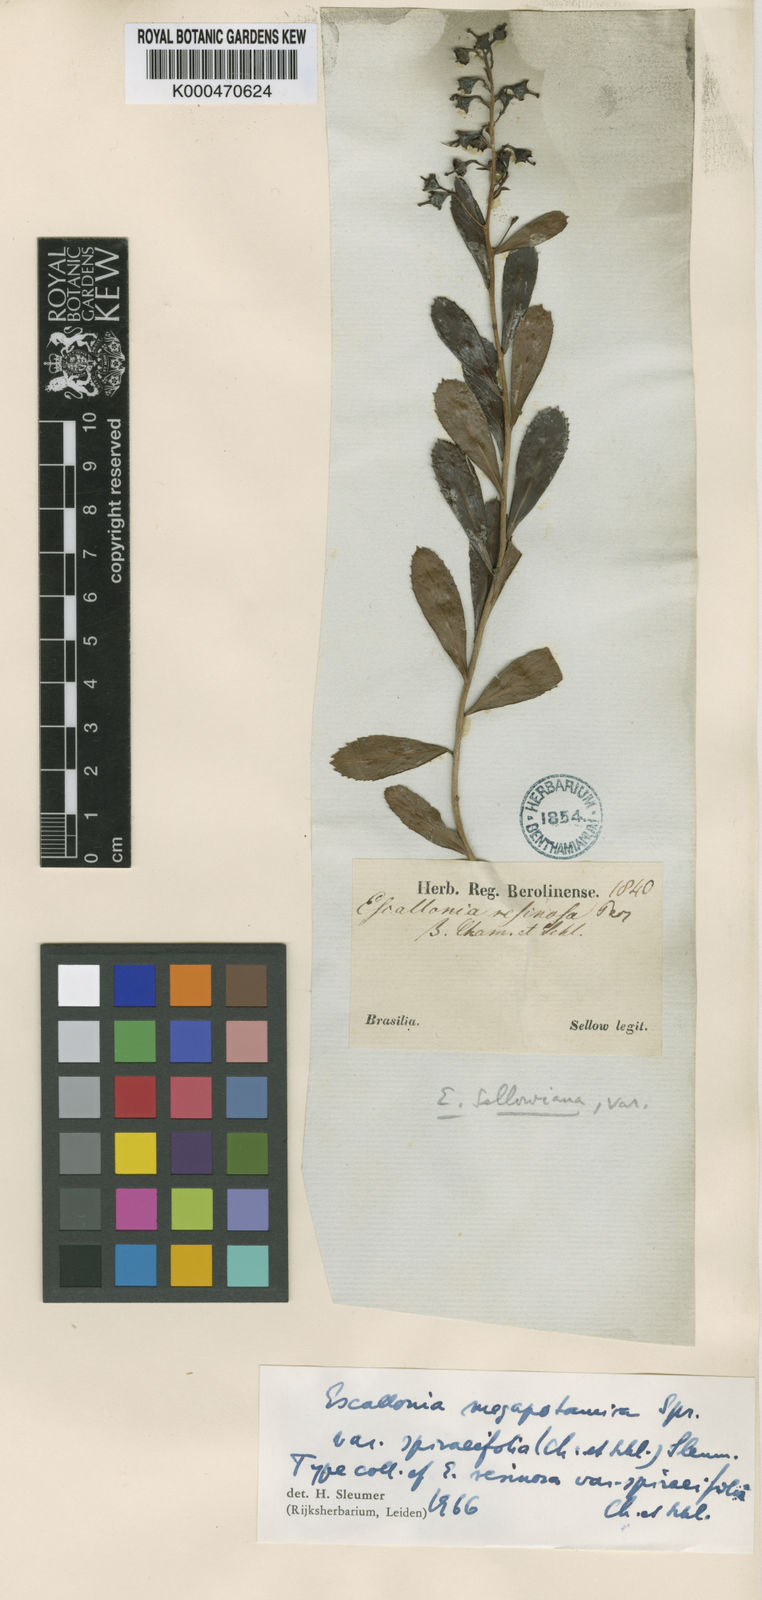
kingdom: Plantae
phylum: Tracheophyta
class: Magnoliopsida
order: Escalloniales
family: Escalloniaceae
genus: Escallonia
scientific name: Escallonia megapotamica
